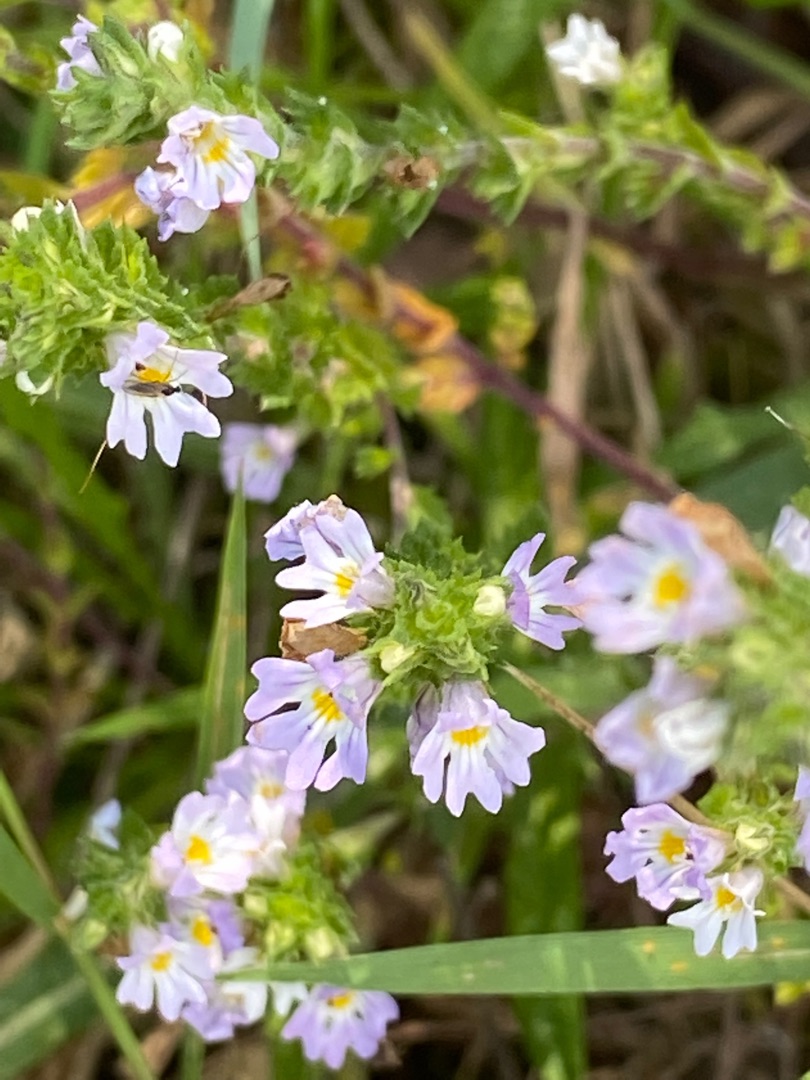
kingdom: Plantae
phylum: Tracheophyta
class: Magnoliopsida
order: Lamiales
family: Orobanchaceae
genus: Euphrasia
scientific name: Euphrasia stricta
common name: Spids øjentrøst
